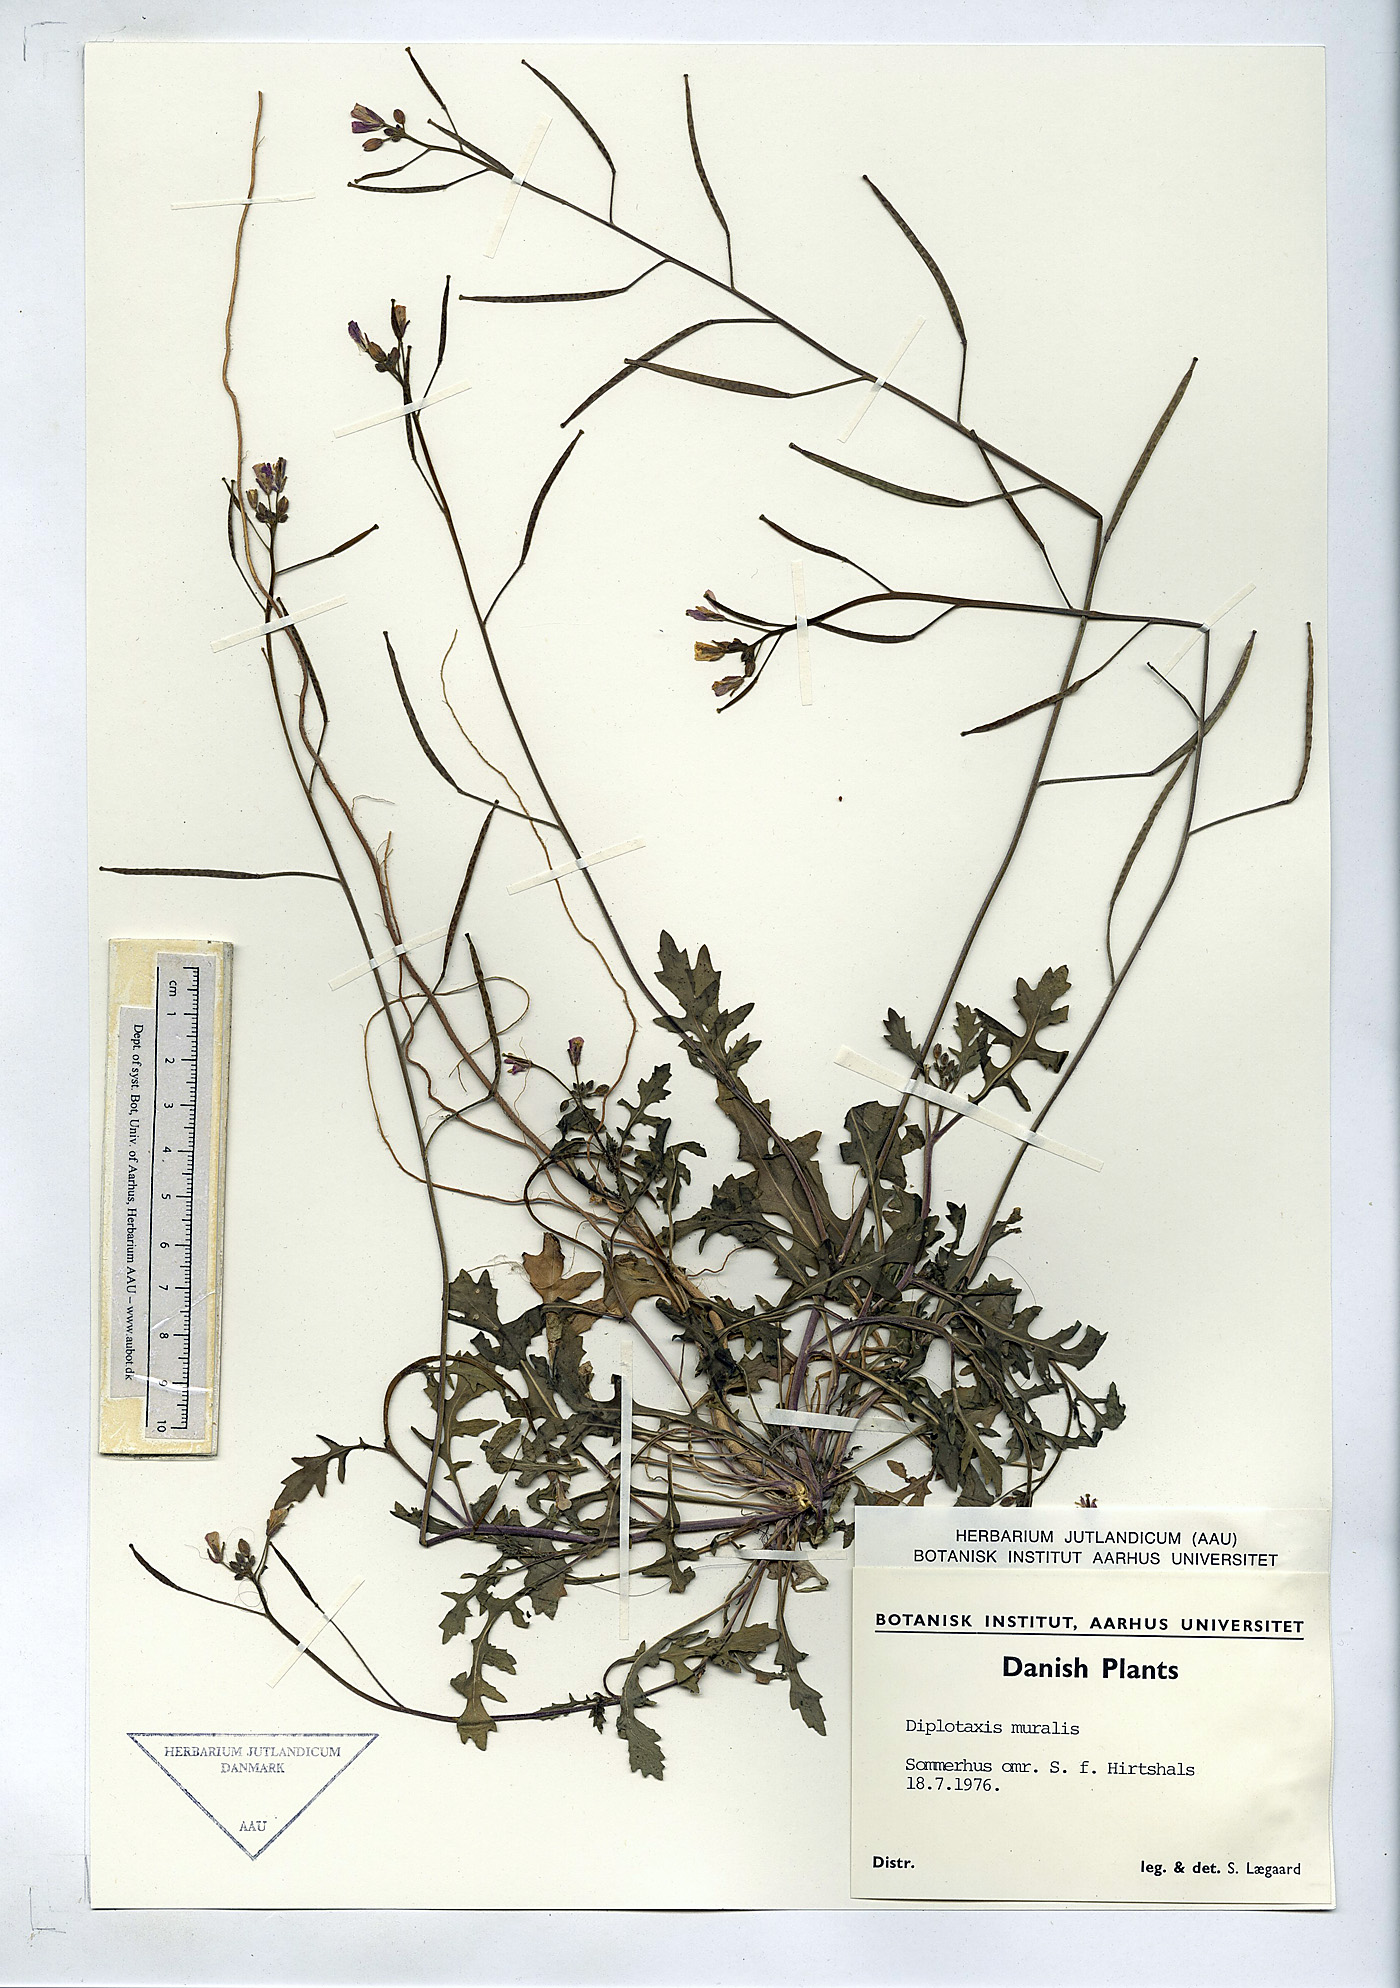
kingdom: Plantae
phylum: Tracheophyta
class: Magnoliopsida
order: Brassicales
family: Brassicaceae
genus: Diplotaxis
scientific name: Diplotaxis muralis
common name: Annual wall-rocket
